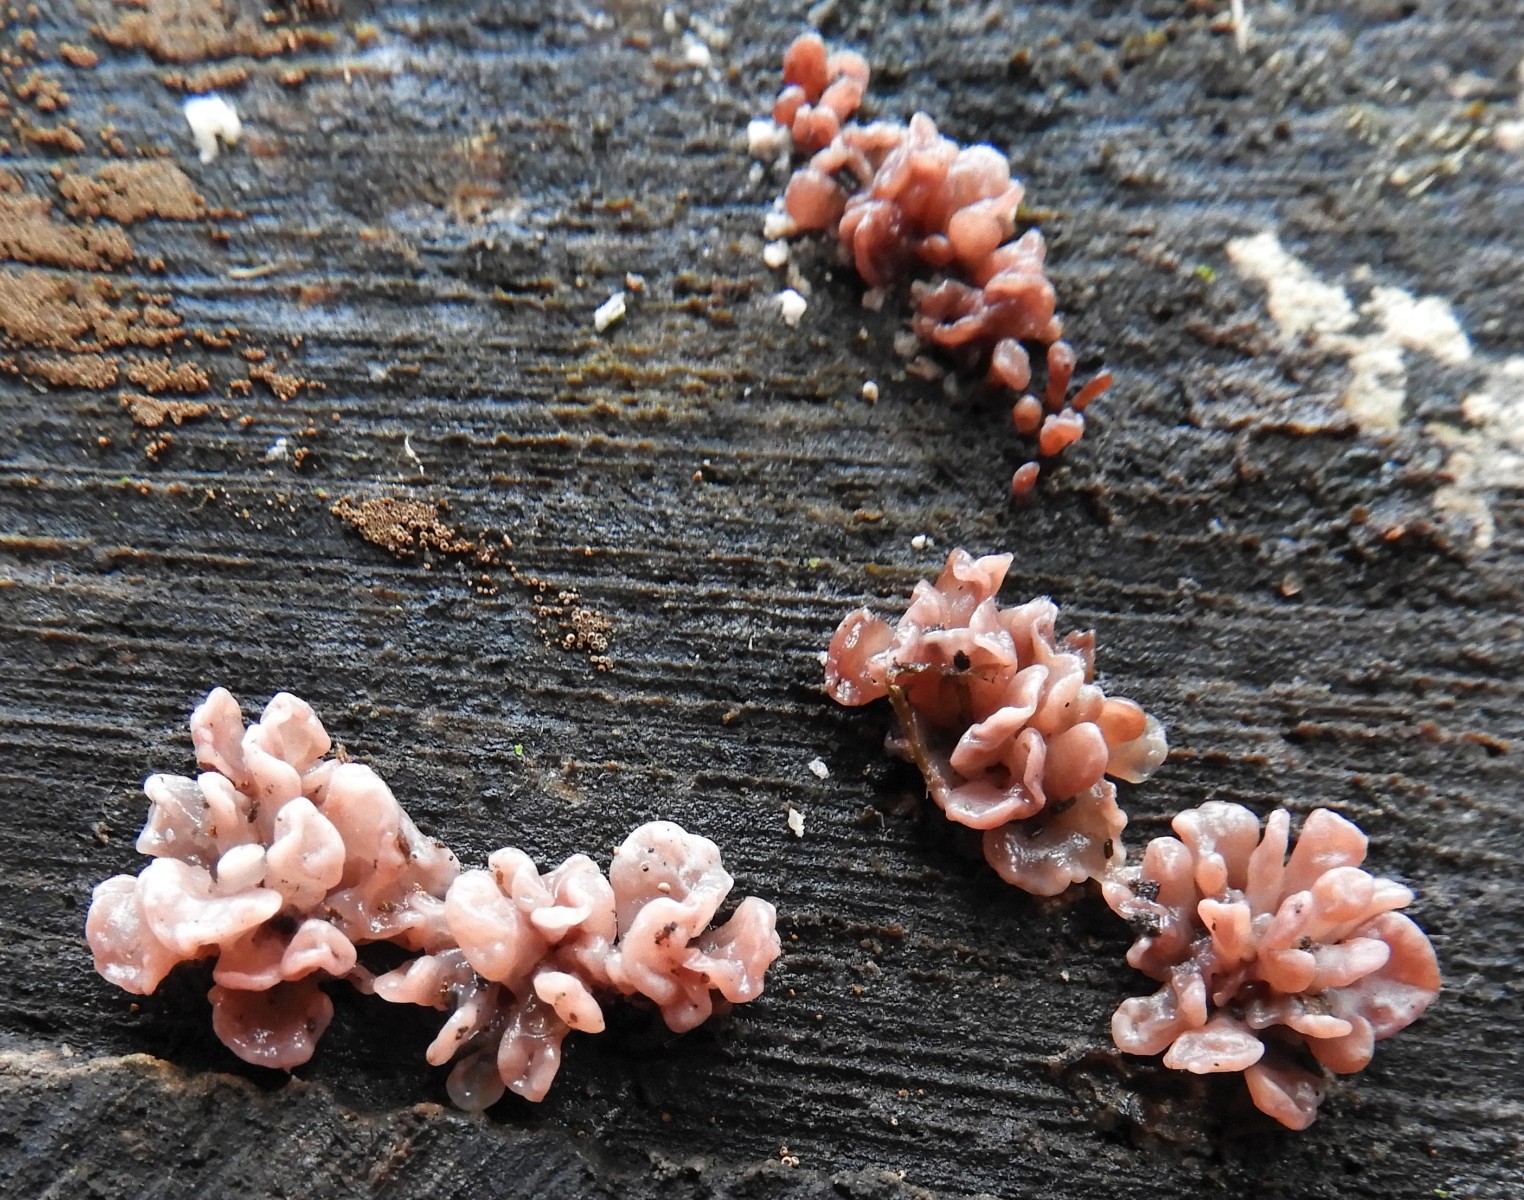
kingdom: Fungi
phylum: Ascomycota
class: Leotiomycetes
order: Helotiales
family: Gelatinodiscaceae
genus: Ascocoryne
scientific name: Ascocoryne sarcoides
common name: rødlilla sejskive
